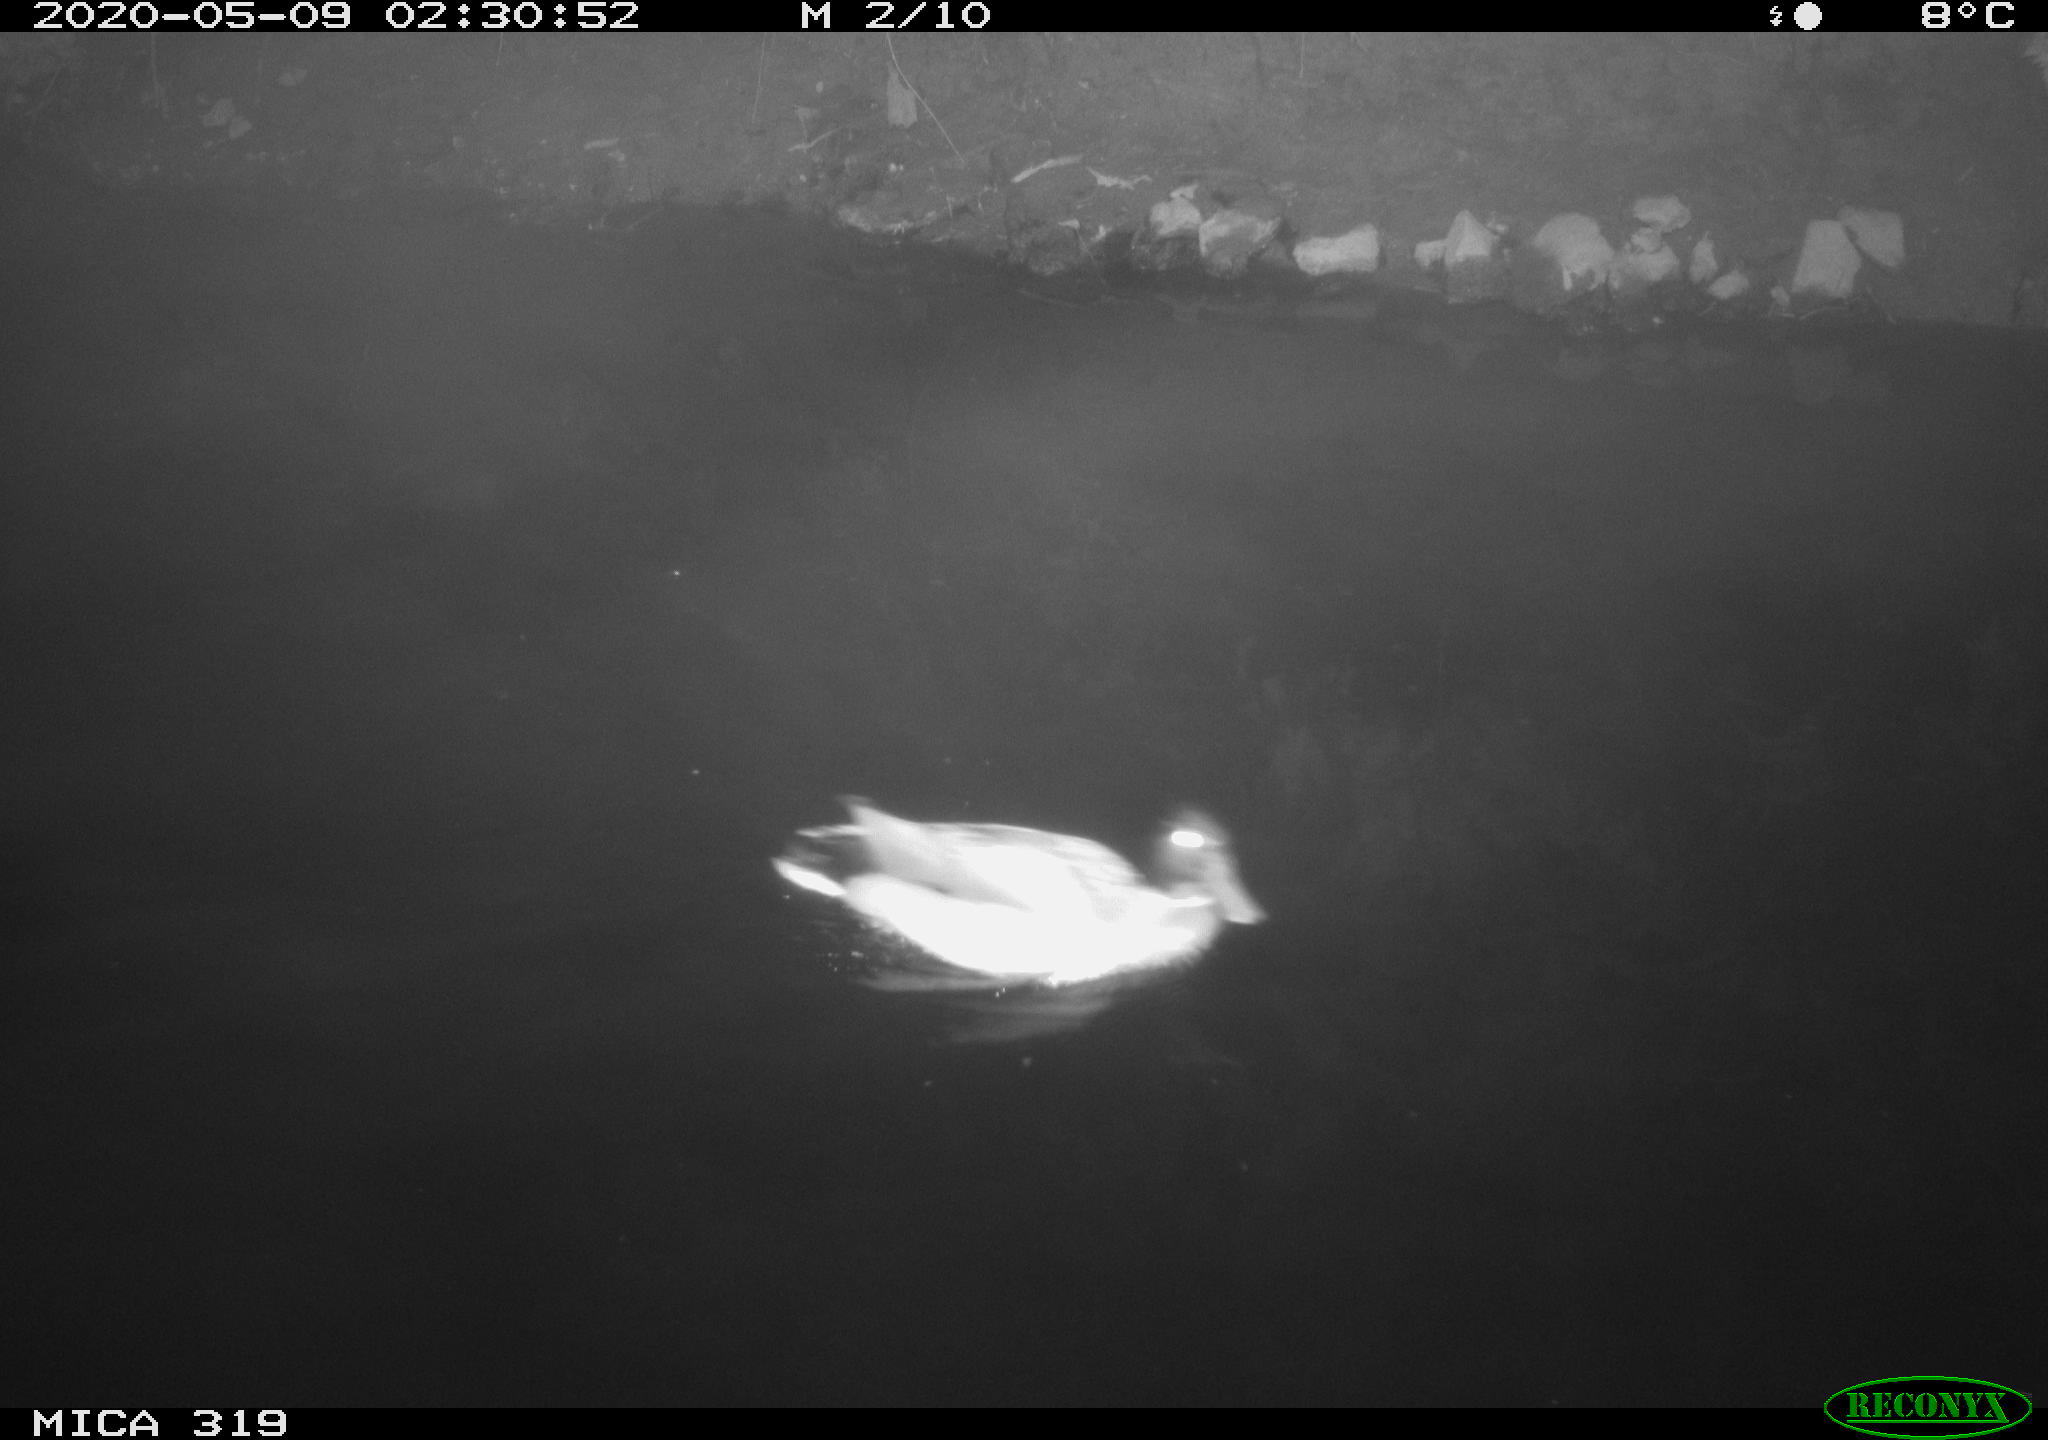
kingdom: Animalia
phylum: Chordata
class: Aves
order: Anseriformes
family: Anatidae
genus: Anas
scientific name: Anas platyrhynchos
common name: Mallard
